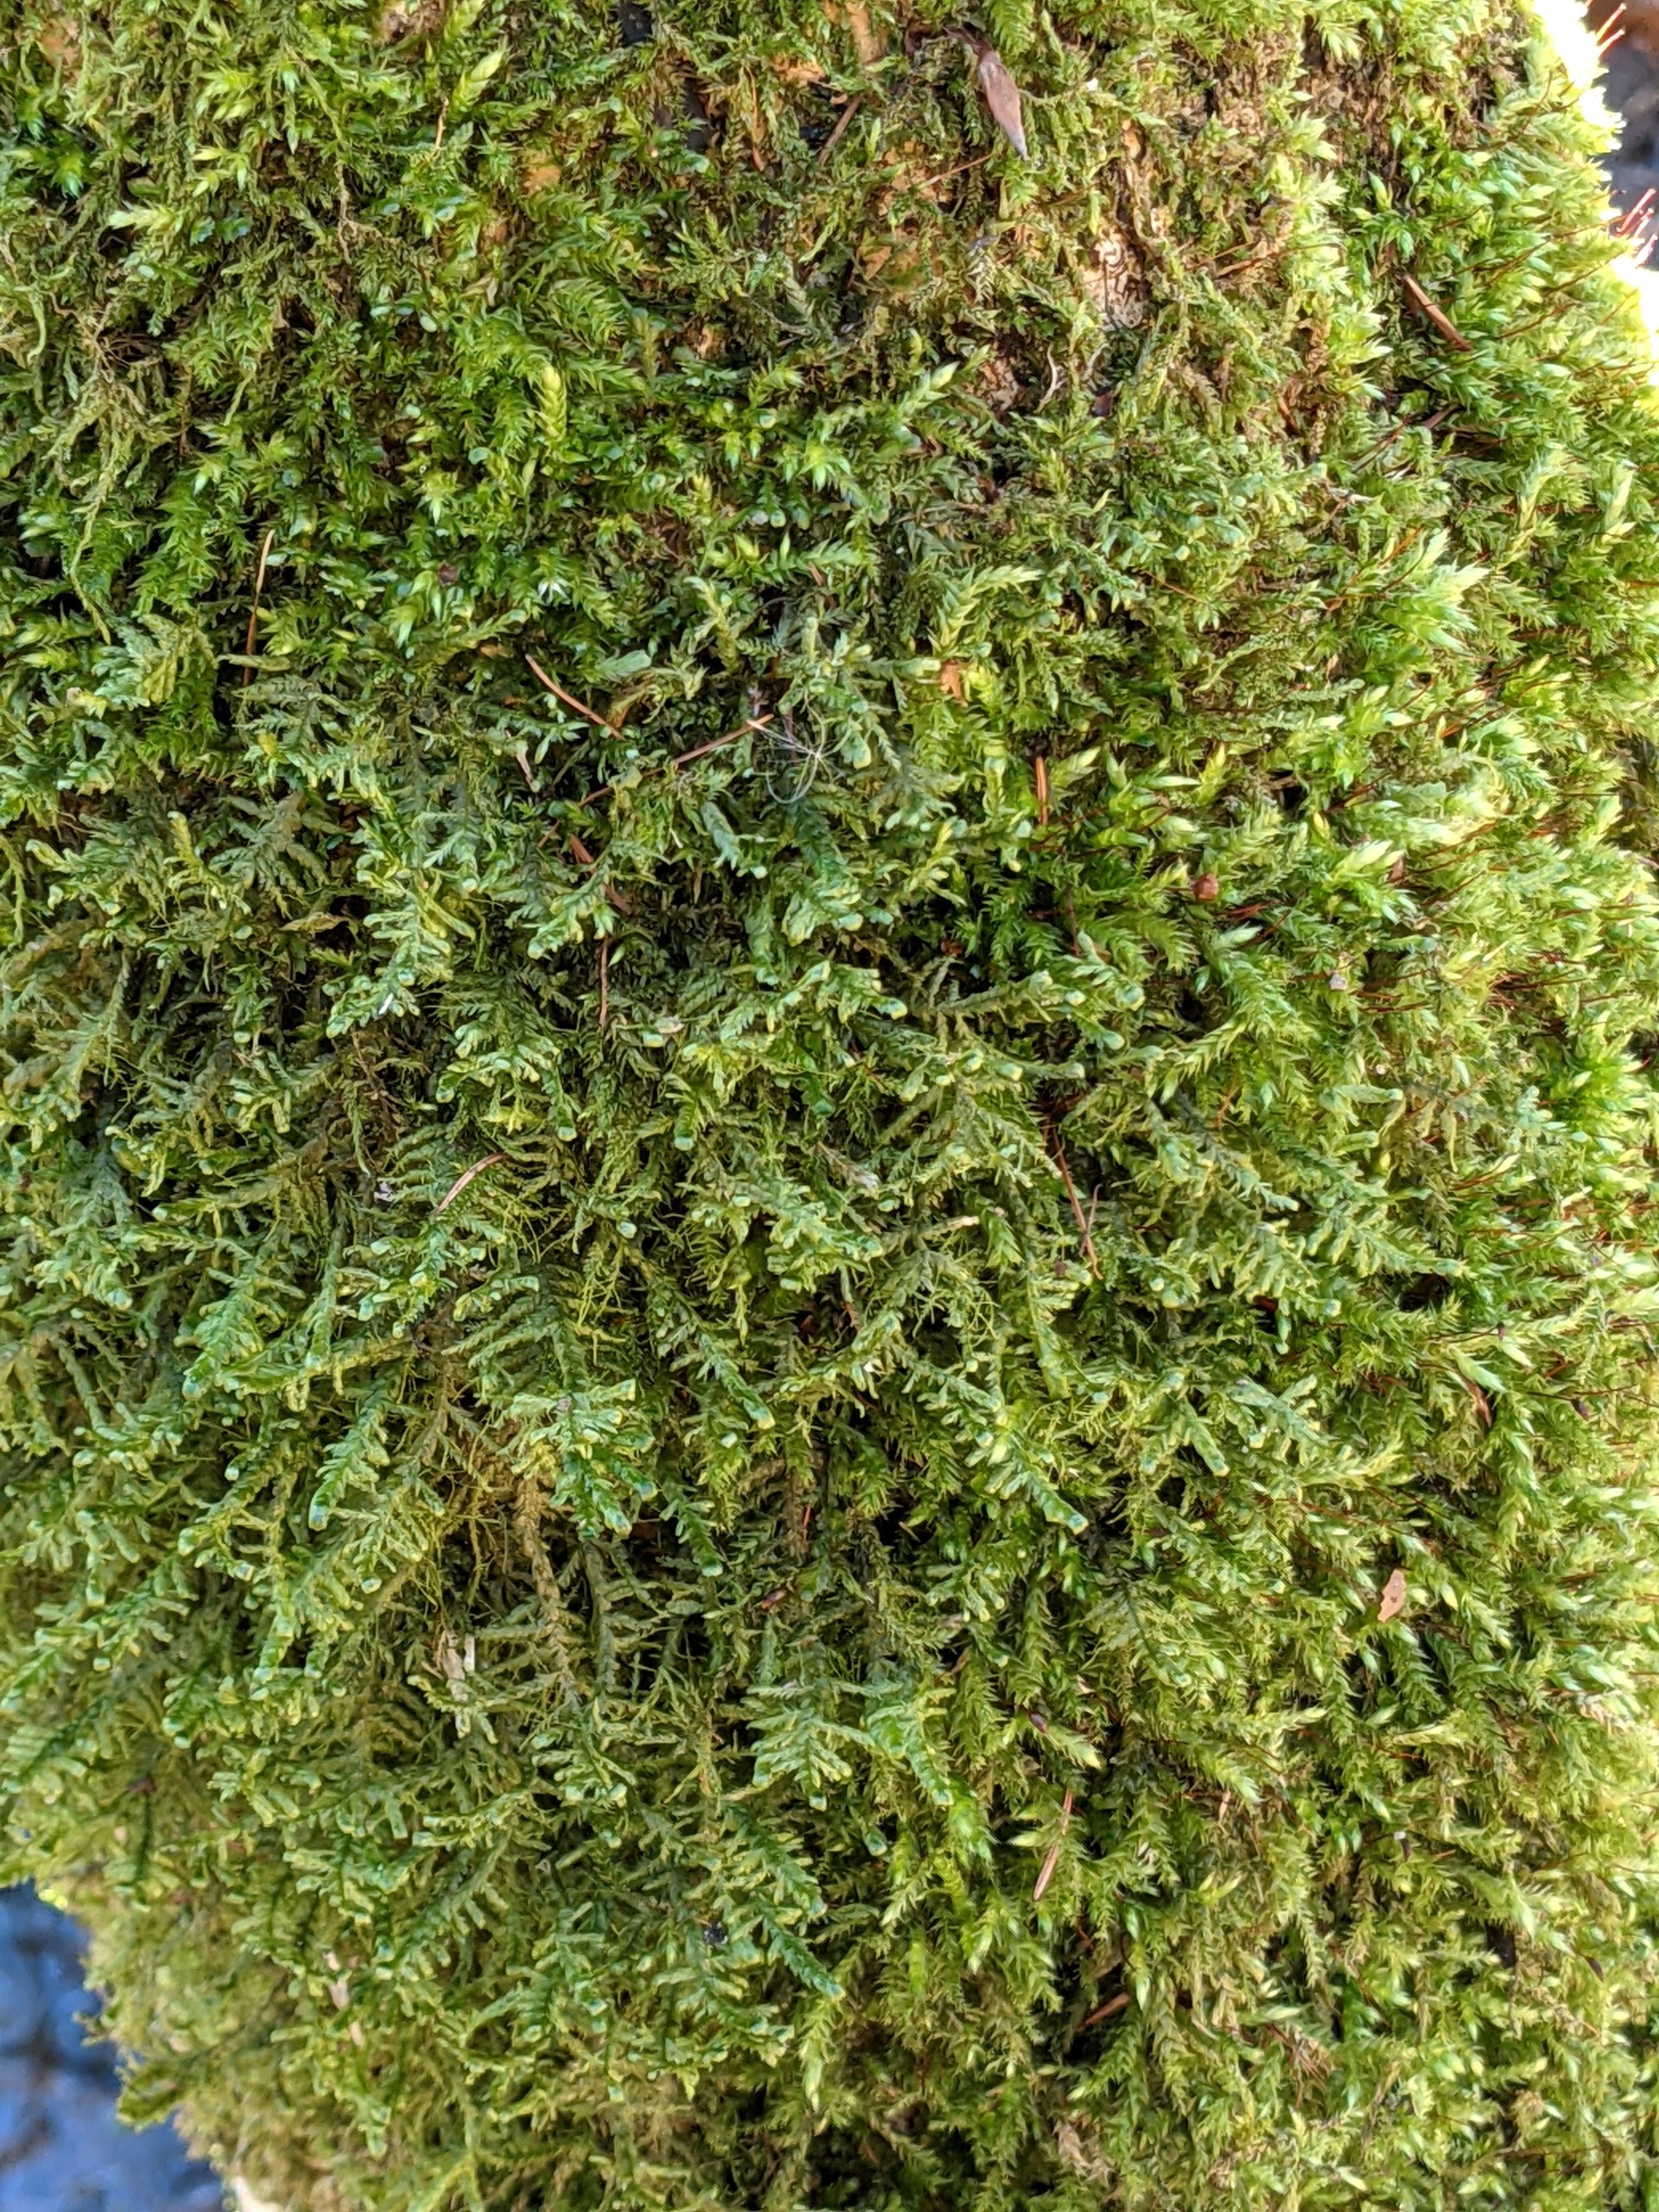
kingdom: Plantae
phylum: Bryophyta
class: Bryopsida
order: Hypnales
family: Neckeraceae
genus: Alleniella
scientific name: Alleniella complanata
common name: Almindelig fladmos
